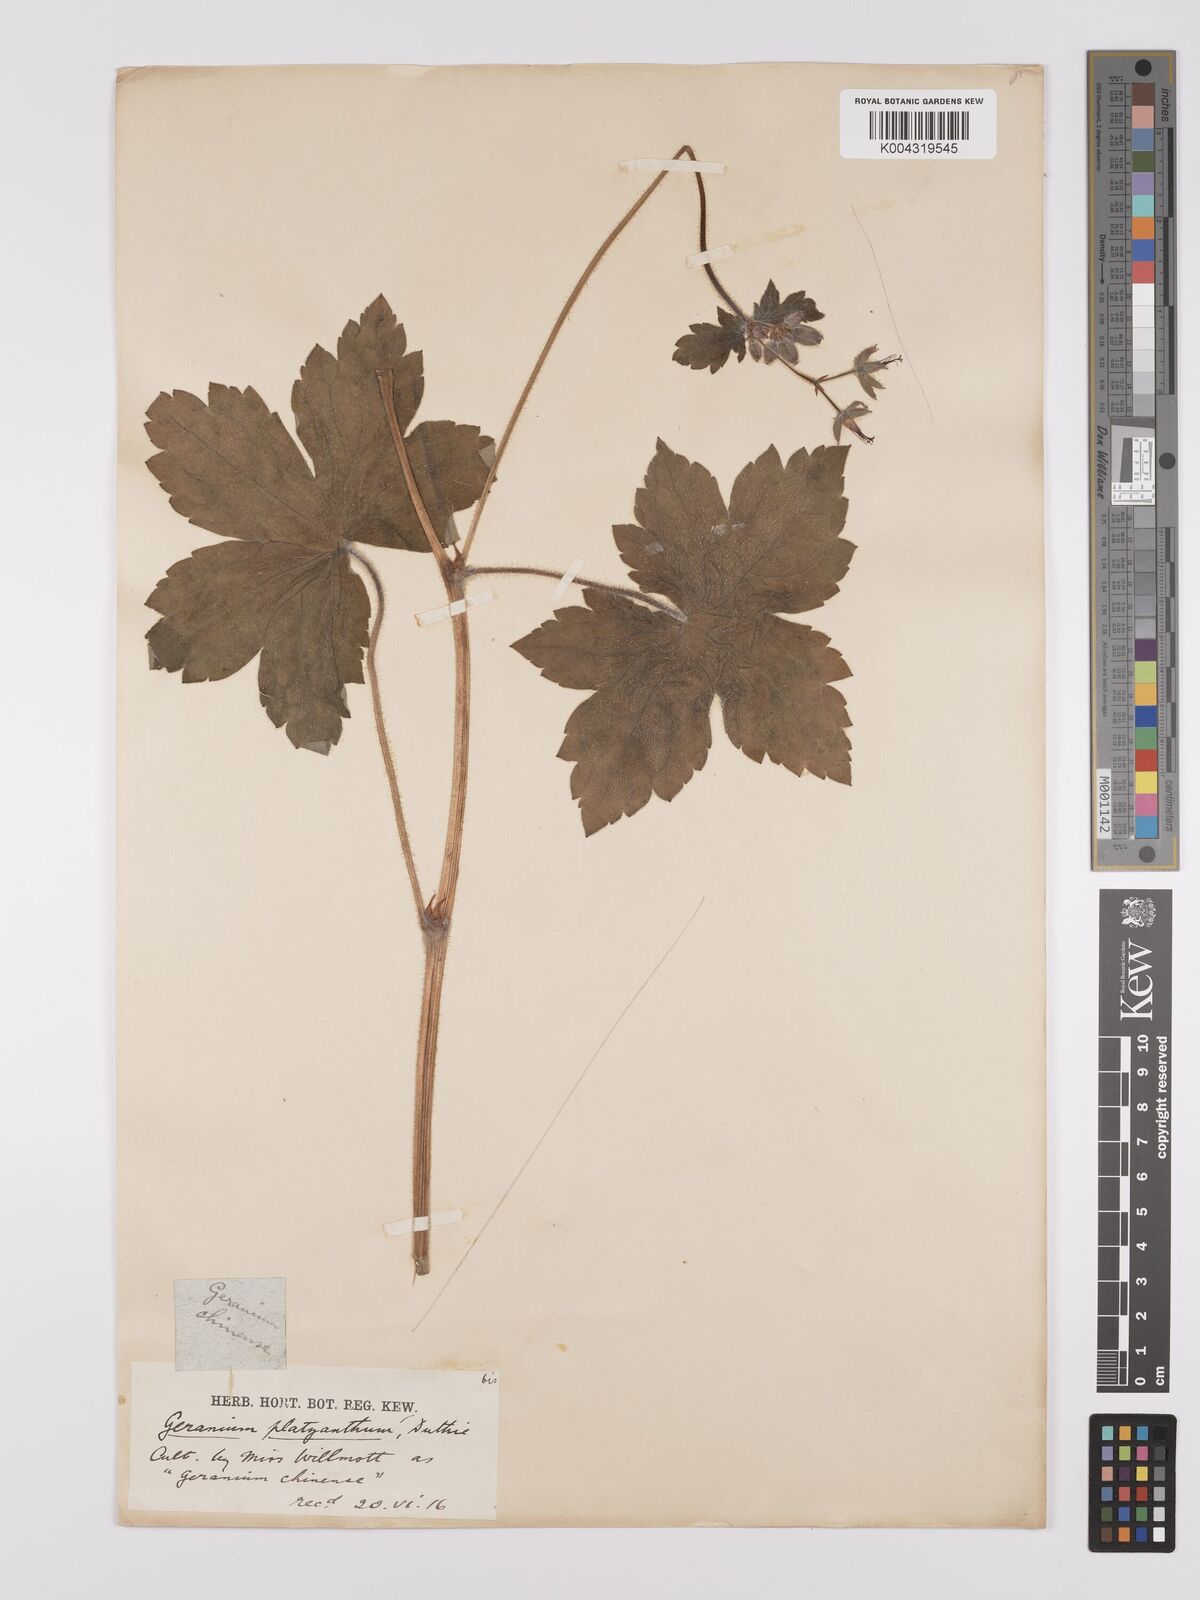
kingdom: Plantae
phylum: Tracheophyta
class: Magnoliopsida
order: Geraniales
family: Geraniaceae
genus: Geranium
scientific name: Geranium platyanthum
